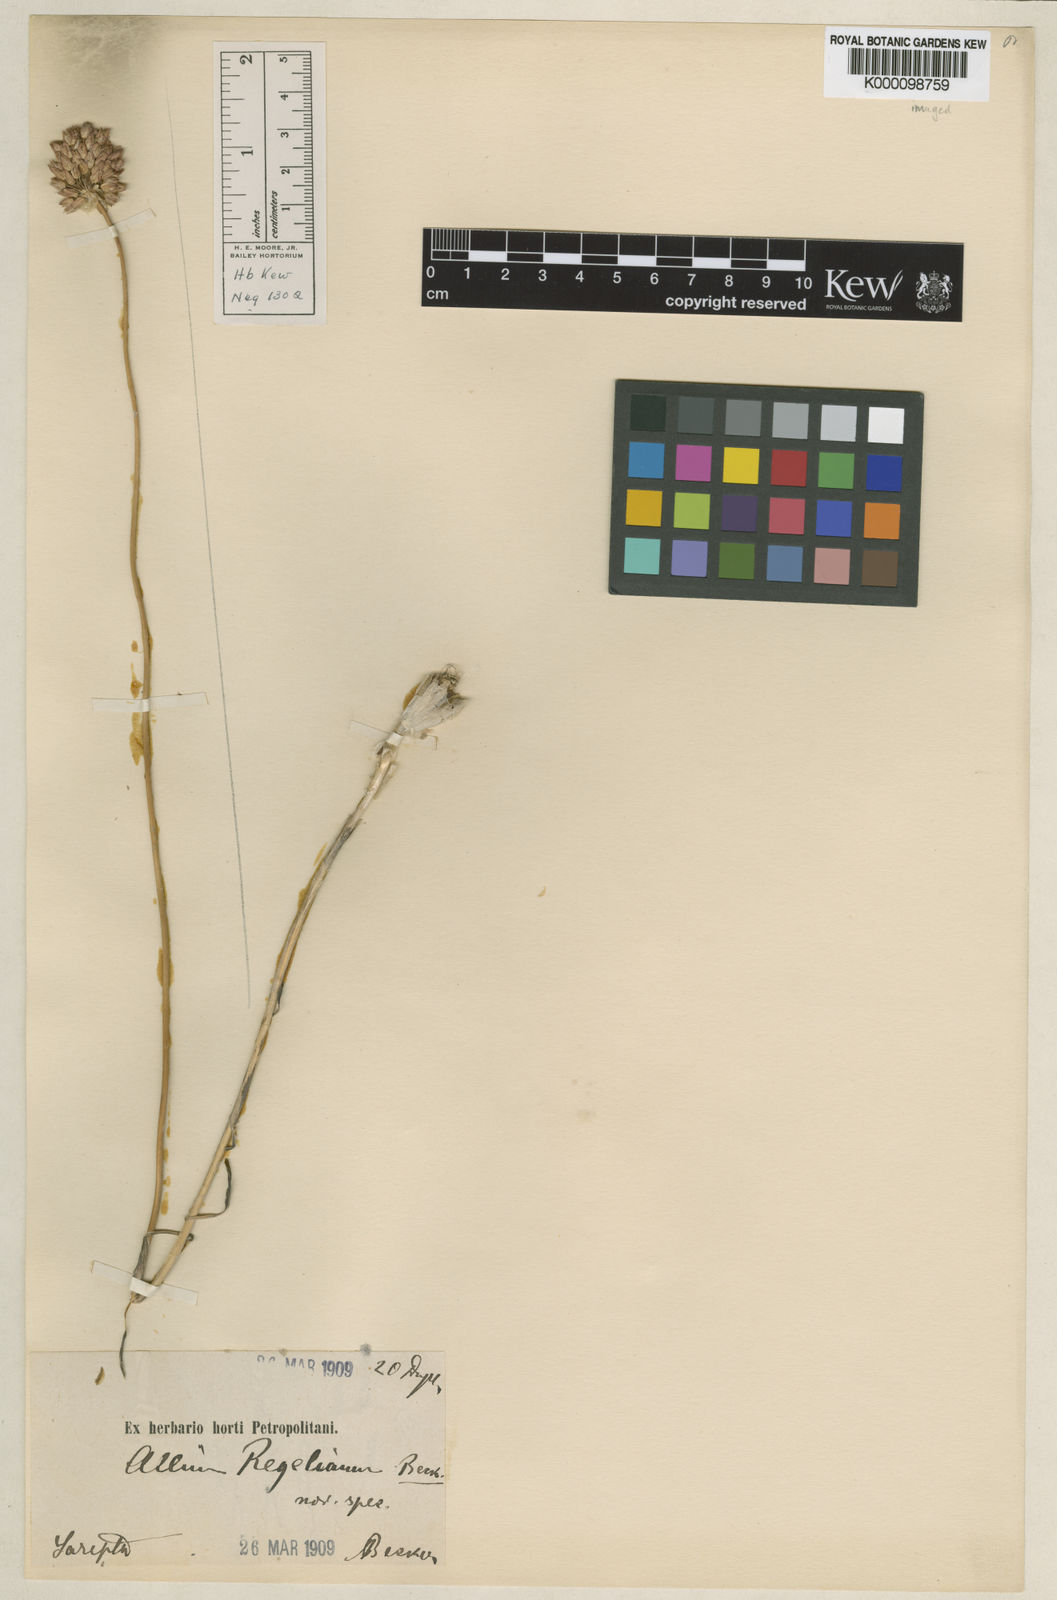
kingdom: Plantae
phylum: Tracheophyta
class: Liliopsida
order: Asparagales
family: Amaryllidaceae
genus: Allium
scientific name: Allium regelianum
